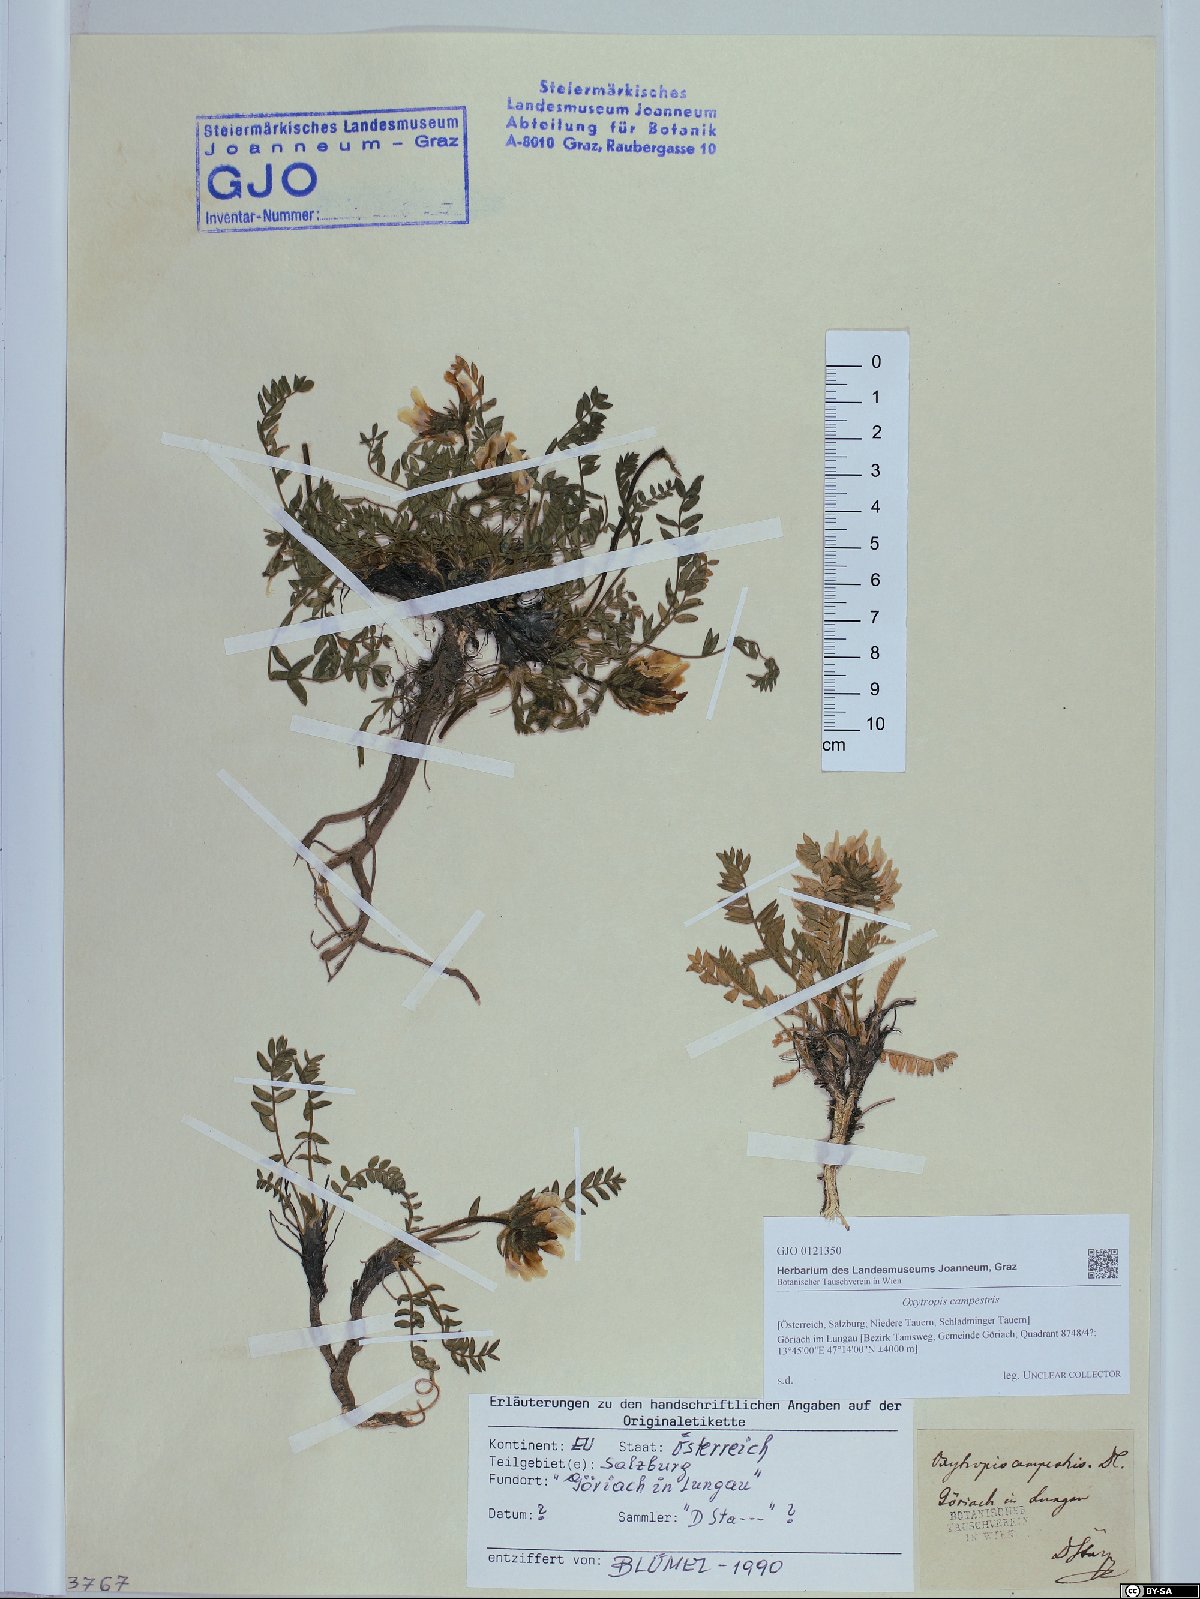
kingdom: Plantae
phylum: Tracheophyta
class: Magnoliopsida
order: Fabales
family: Fabaceae
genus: Oxytropis
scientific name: Oxytropis campestris
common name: Field locoweed
